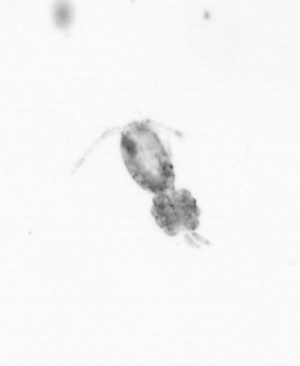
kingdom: Animalia
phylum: Arthropoda
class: Copepoda
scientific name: Copepoda
